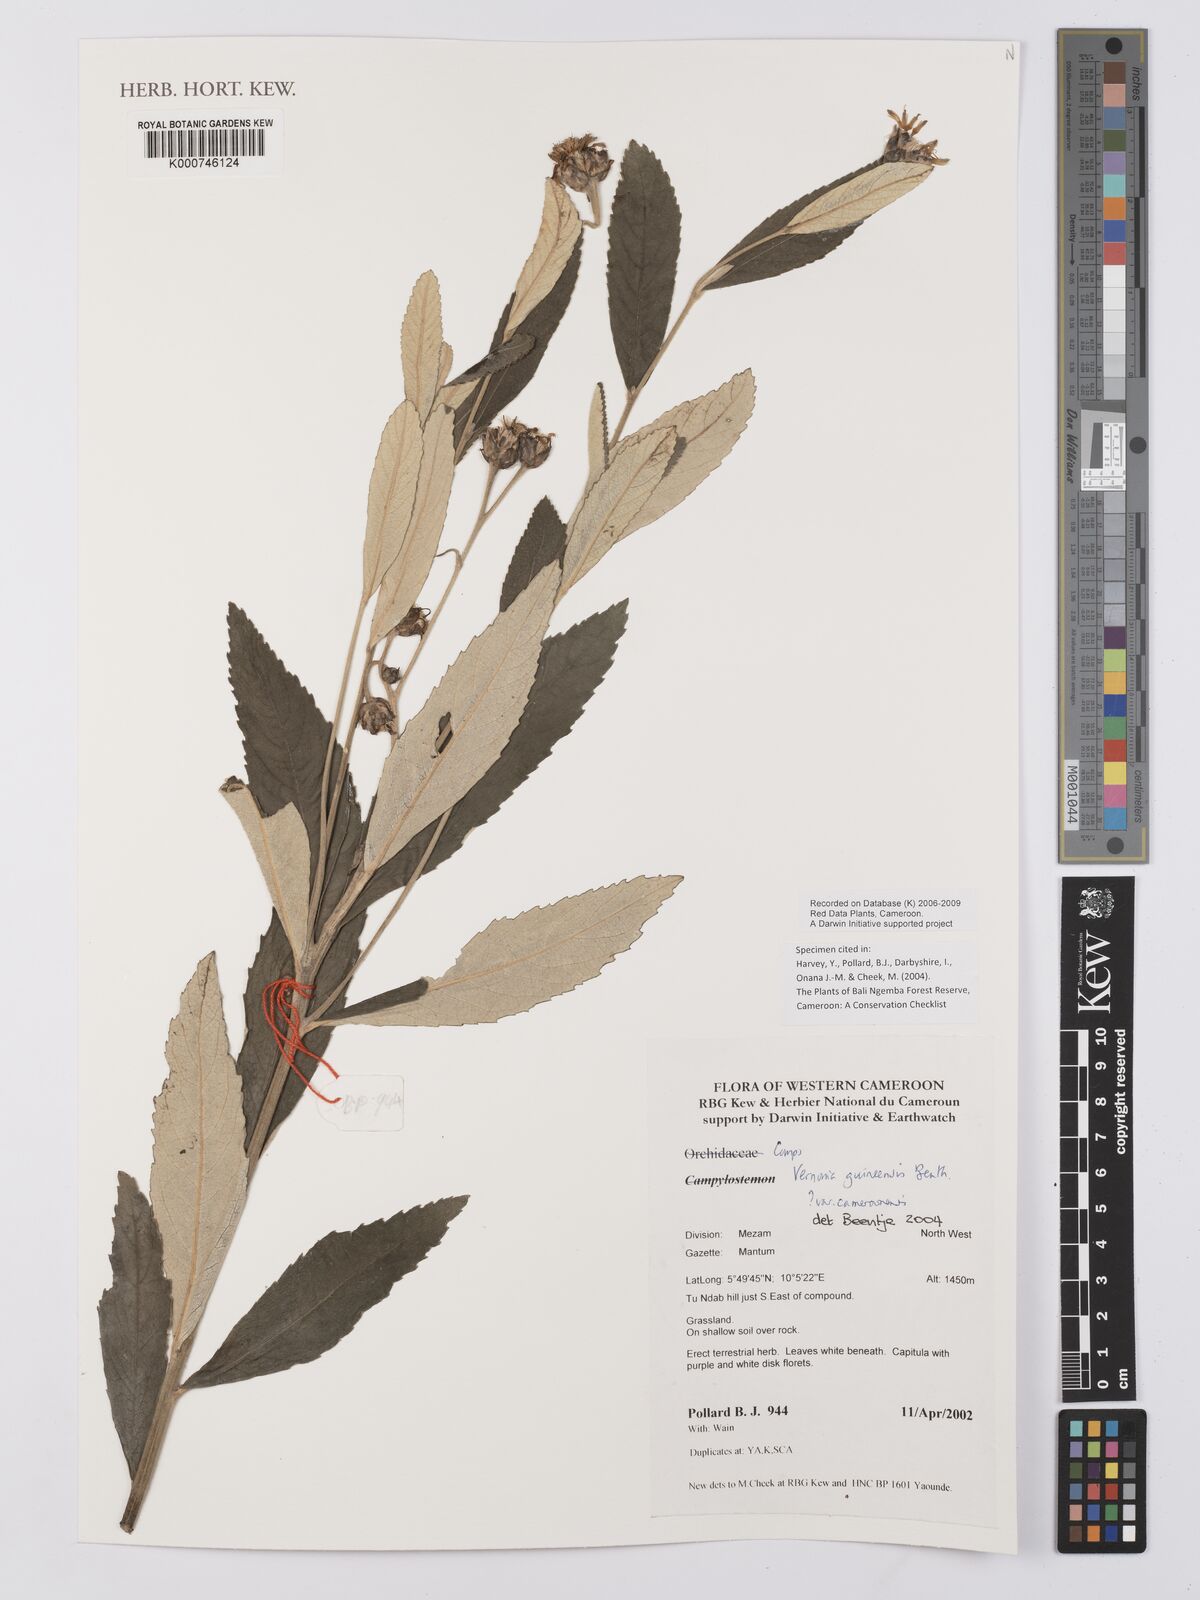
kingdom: Plantae
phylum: Tracheophyta
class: Magnoliopsida
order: Asterales
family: Asteraceae
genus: Baccharoides
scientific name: Baccharoides guineensis
